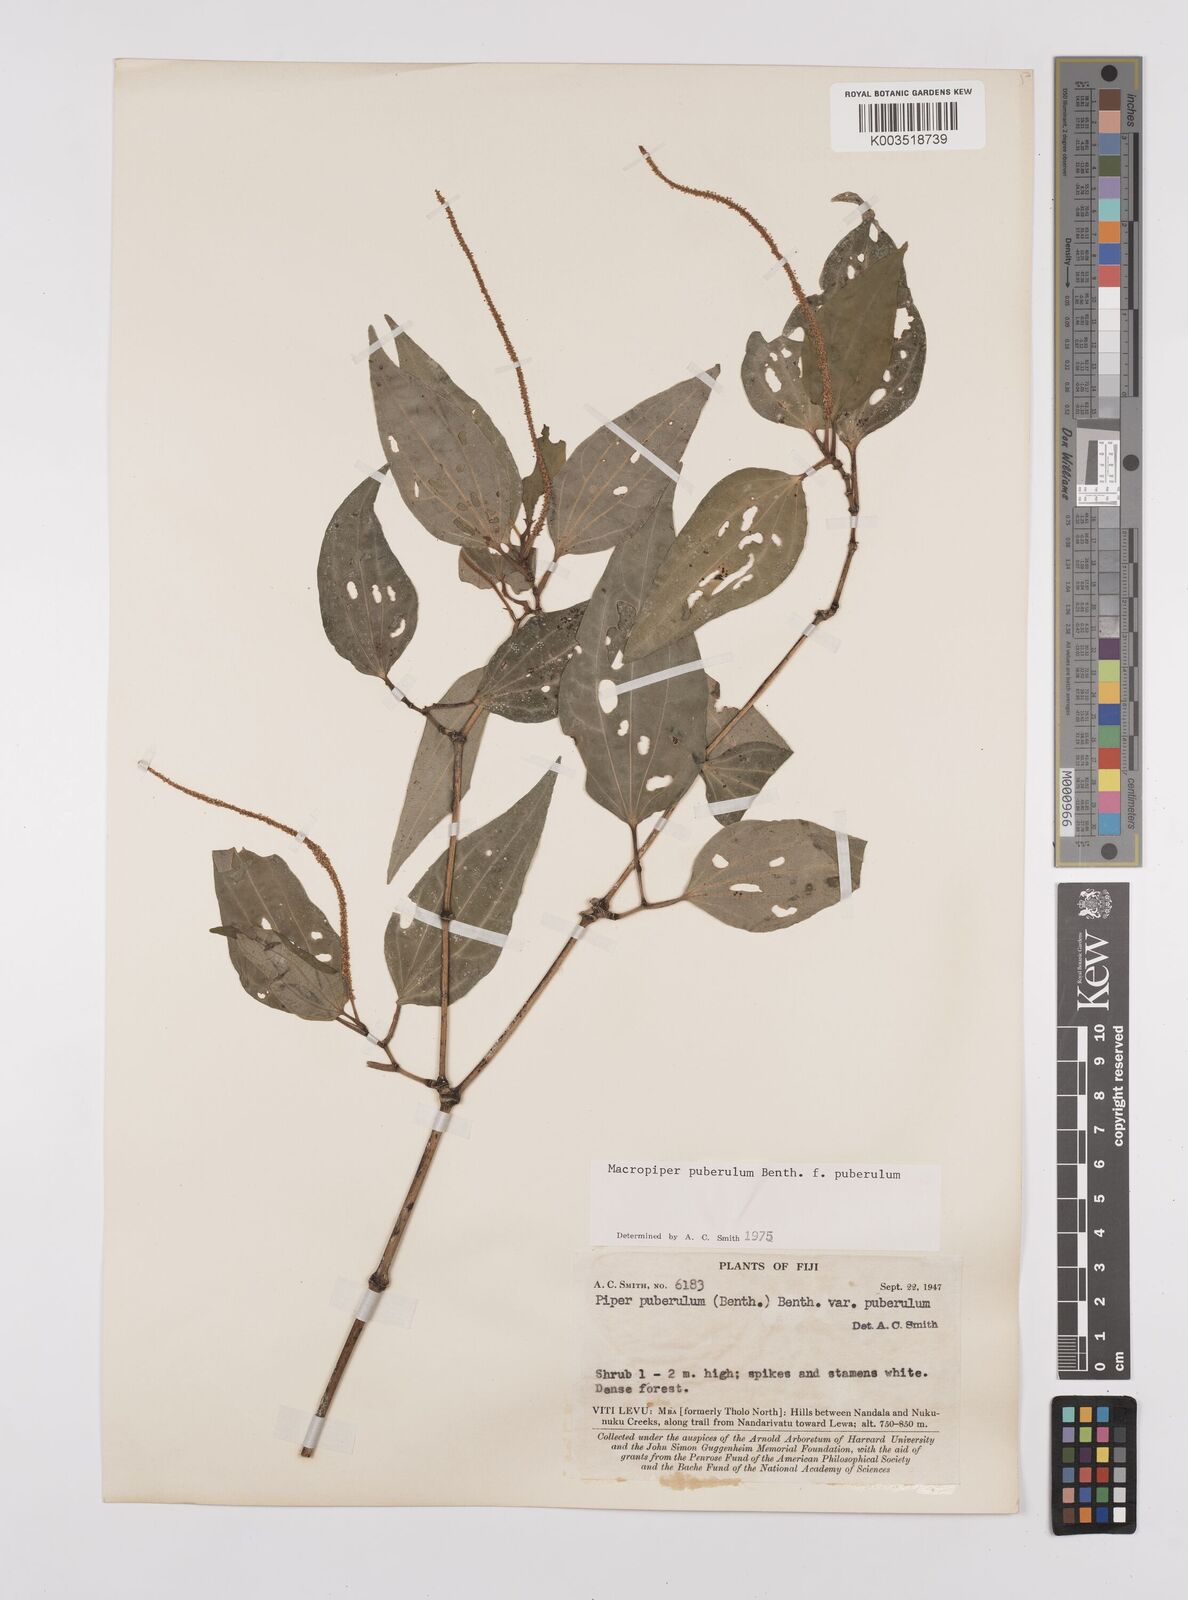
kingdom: Plantae
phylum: Tracheophyta
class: Magnoliopsida
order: Piperales
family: Piperaceae
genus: Macropiper
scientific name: Macropiper puberulum
